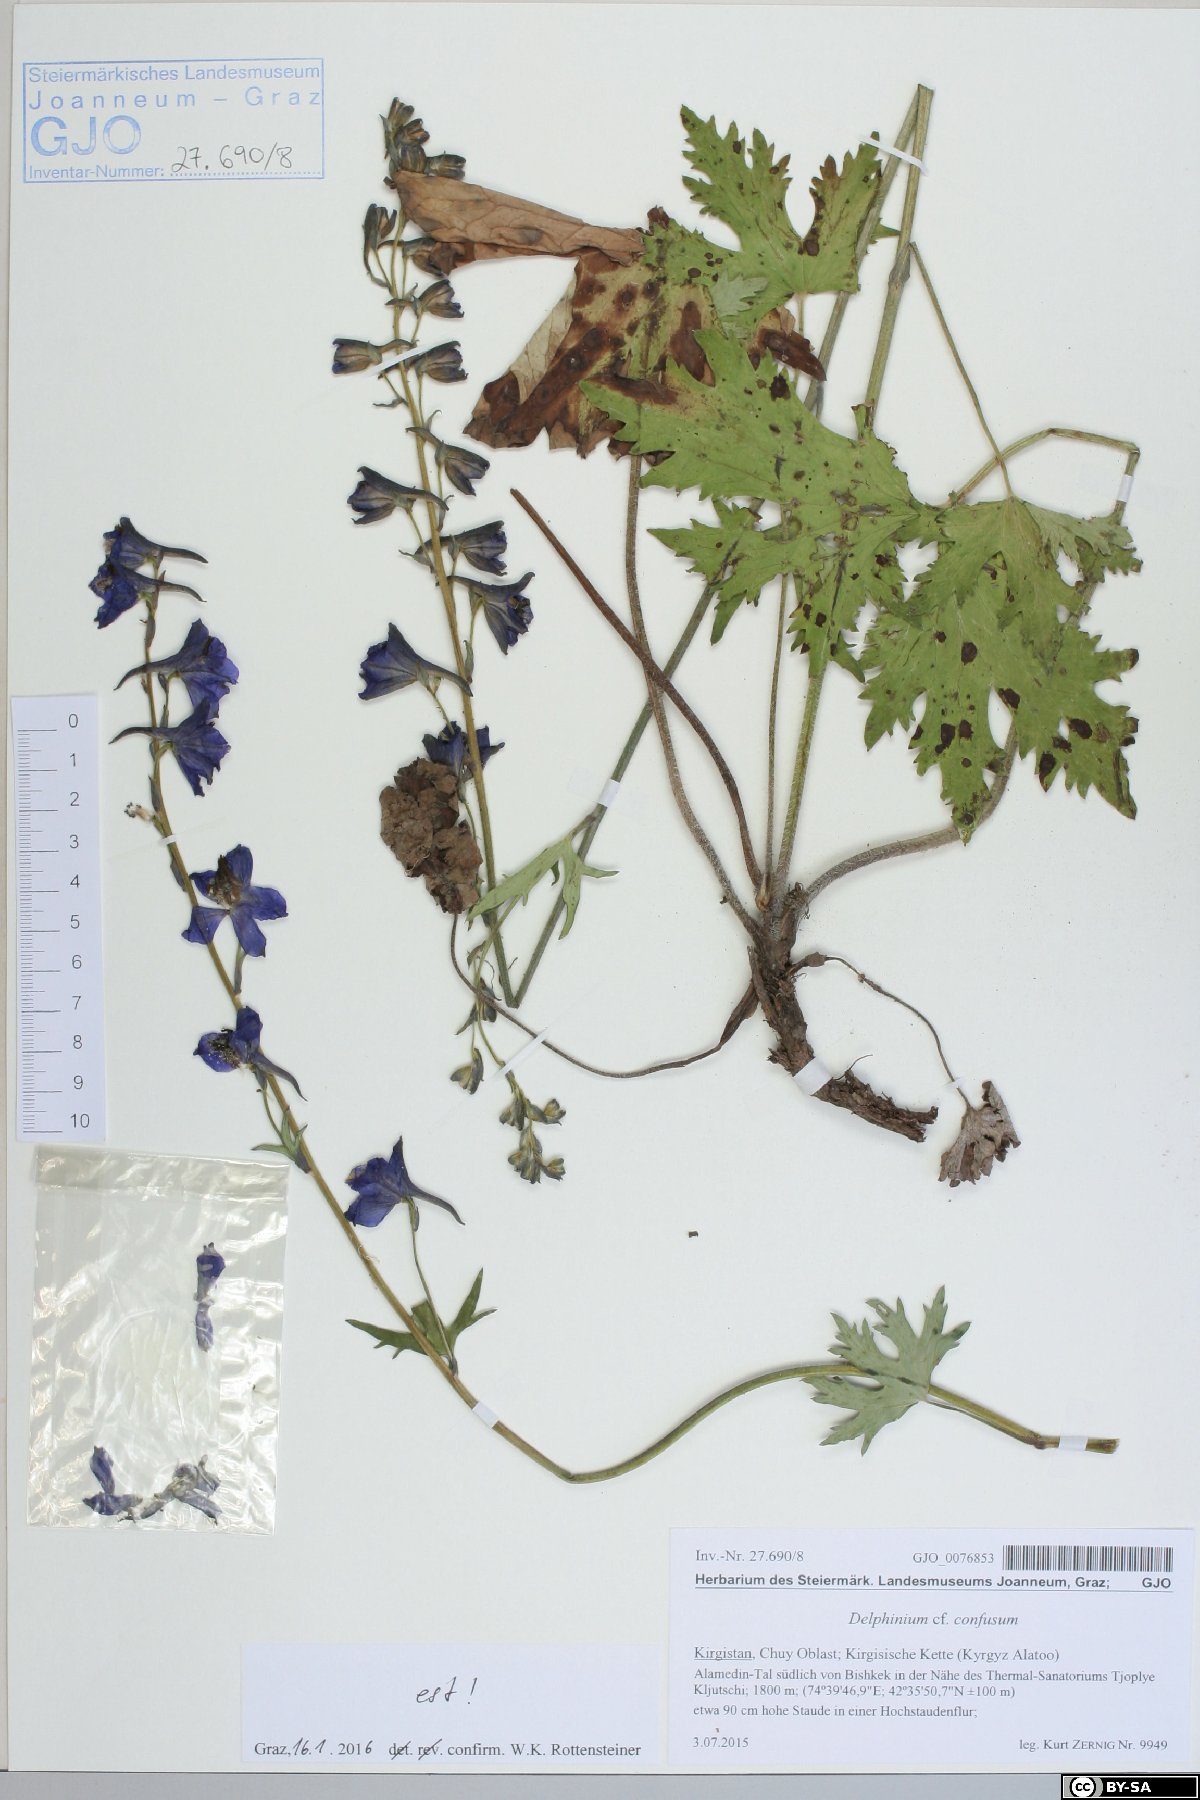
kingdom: Plantae
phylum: Tracheophyta
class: Magnoliopsida
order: Ranunculales
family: Ranunculaceae
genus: Delphinium
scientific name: Delphinium confusum
